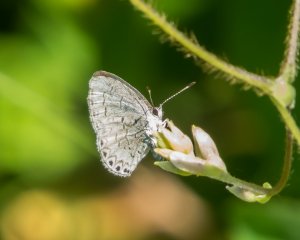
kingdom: Animalia
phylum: Arthropoda
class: Insecta
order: Lepidoptera
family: Lycaenidae
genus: Cyaniris
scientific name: Cyaniris neglecta
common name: Summer Azure
